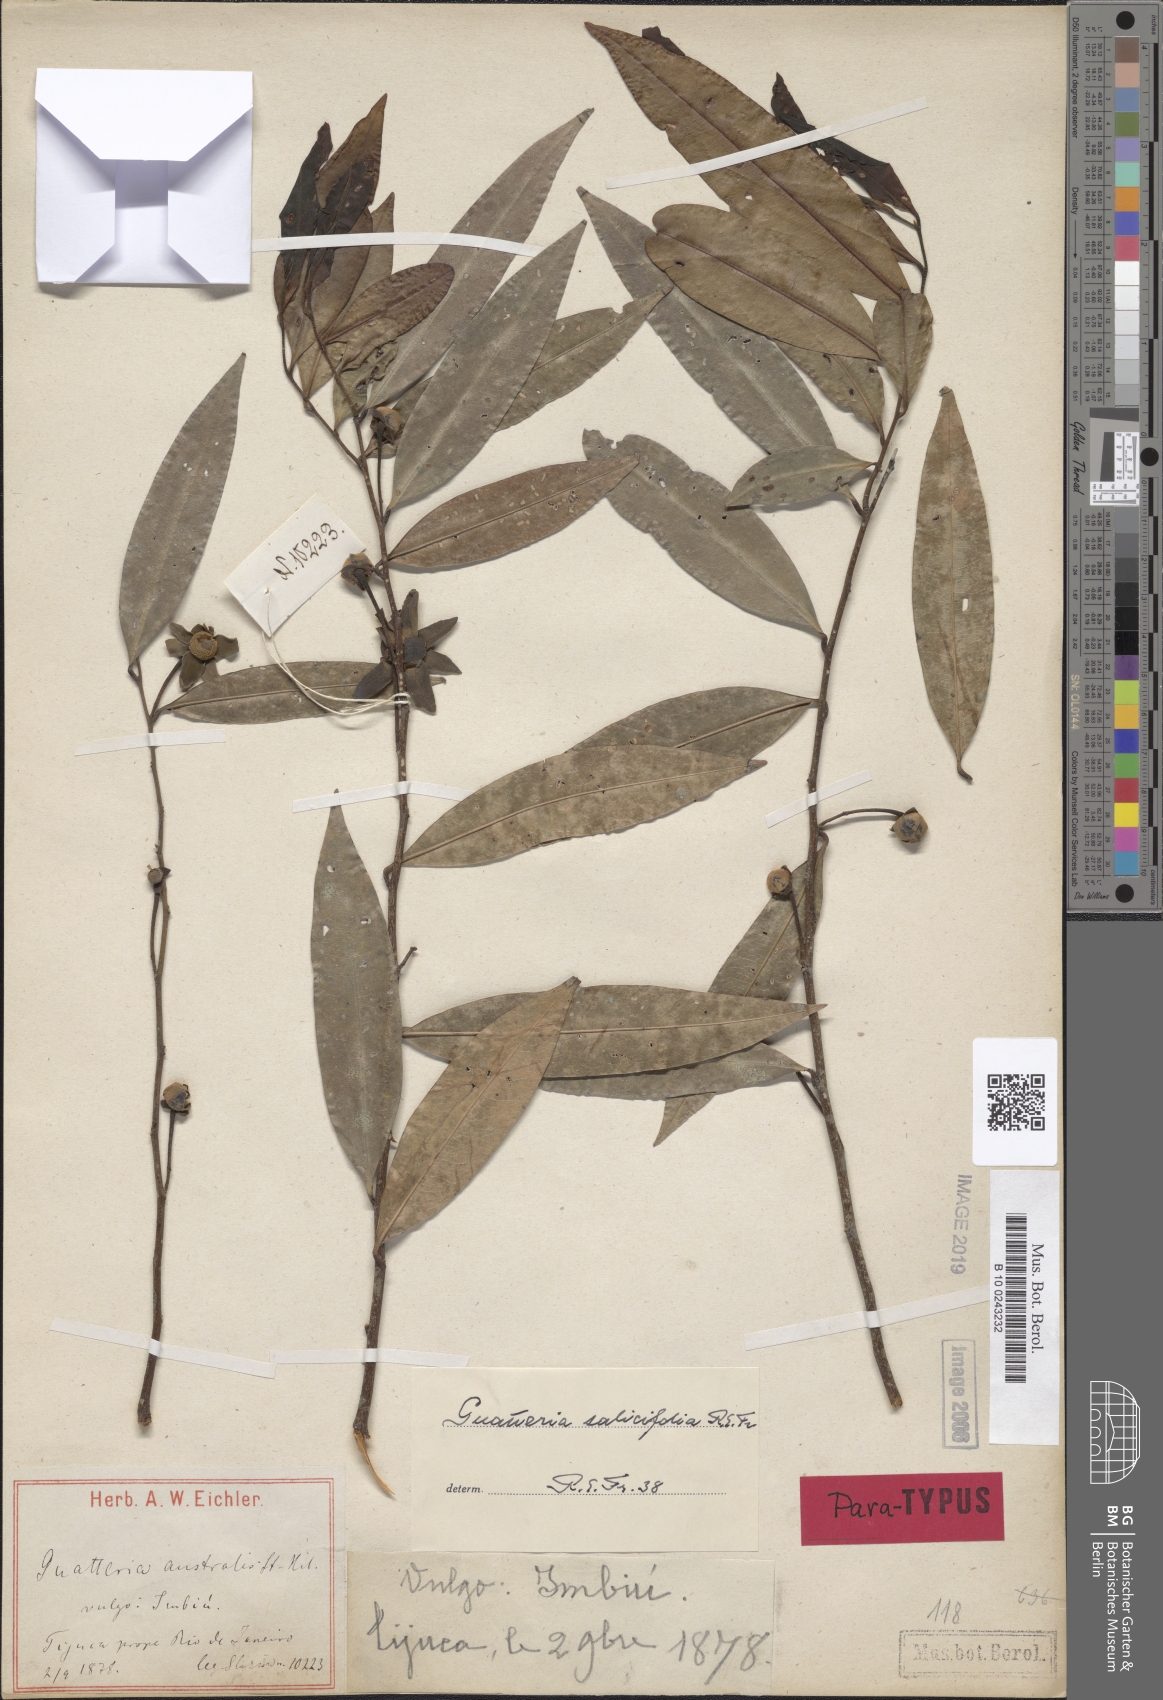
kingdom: Plantae
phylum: Tracheophyta
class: Magnoliopsida
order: Magnoliales
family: Annonaceae
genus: Guatteria
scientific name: Guatteria australis
